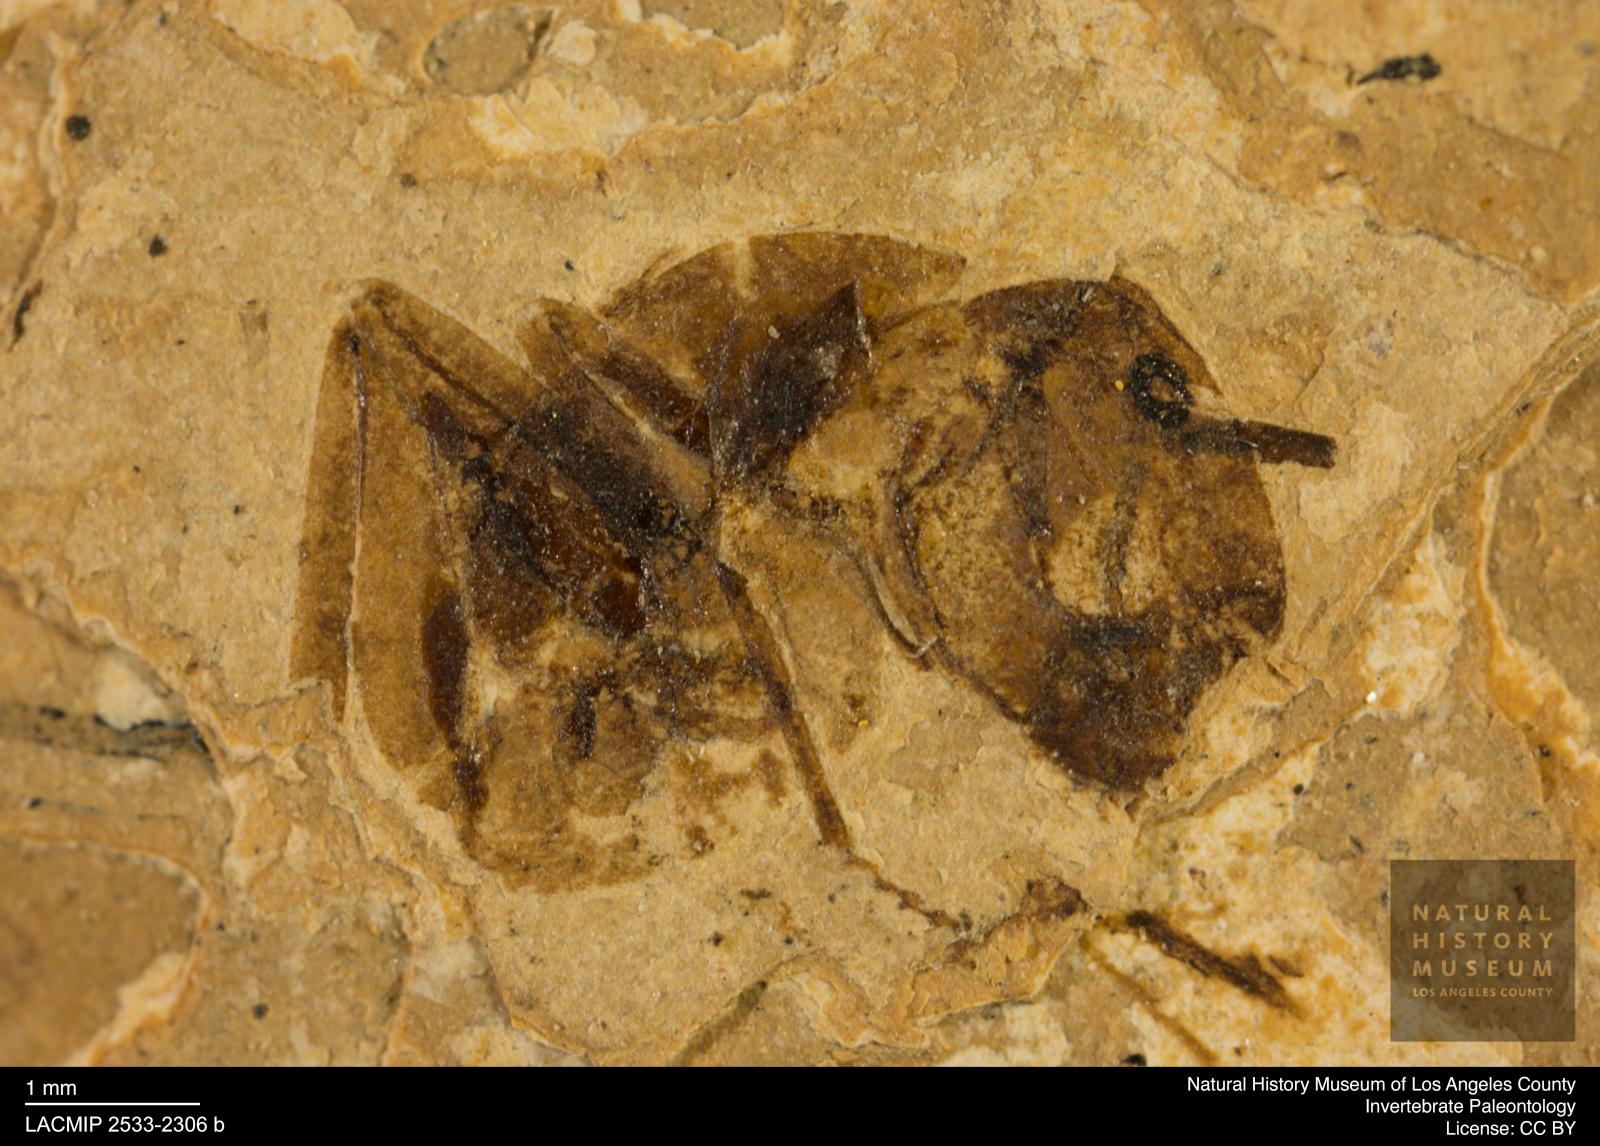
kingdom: Animalia
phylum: Arthropoda
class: Insecta
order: Hymenoptera
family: Formicidae
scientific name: Formicidae
